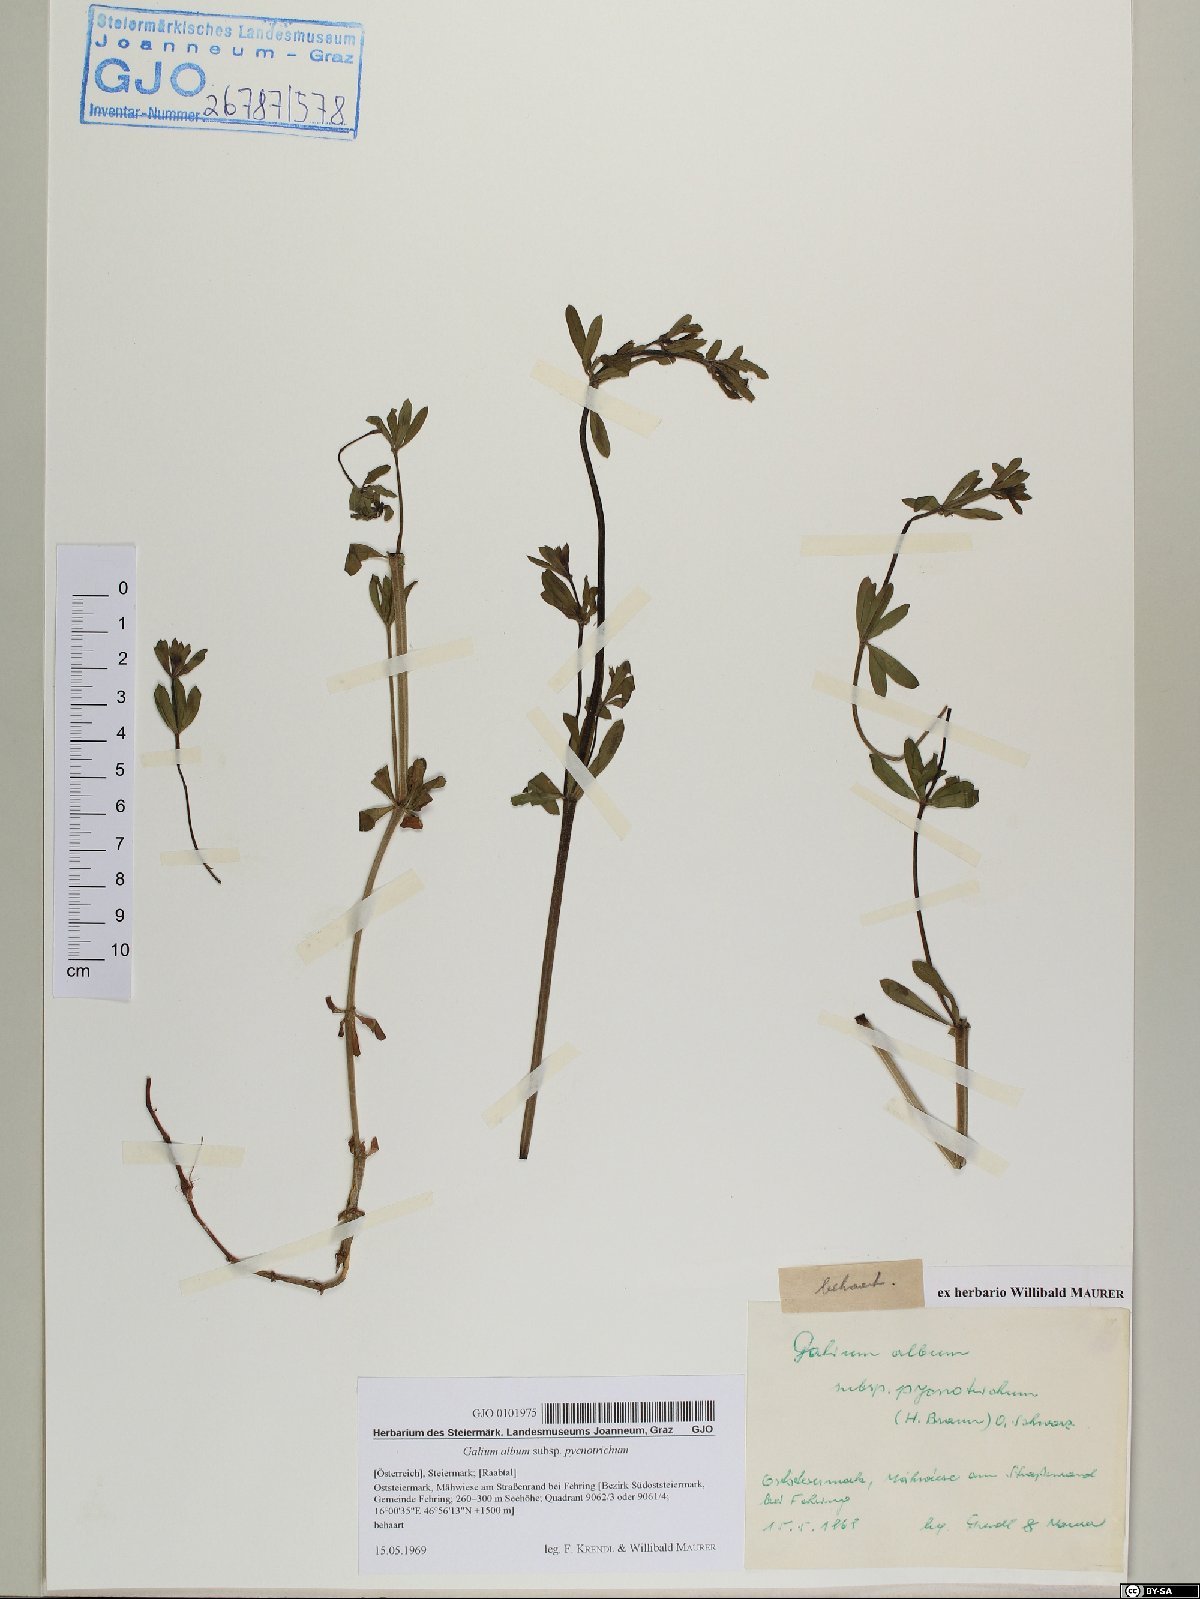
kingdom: Plantae
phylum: Tracheophyta
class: Magnoliopsida
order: Gentianales
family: Rubiaceae
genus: Galium
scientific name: Galium album
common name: White bedstraw
